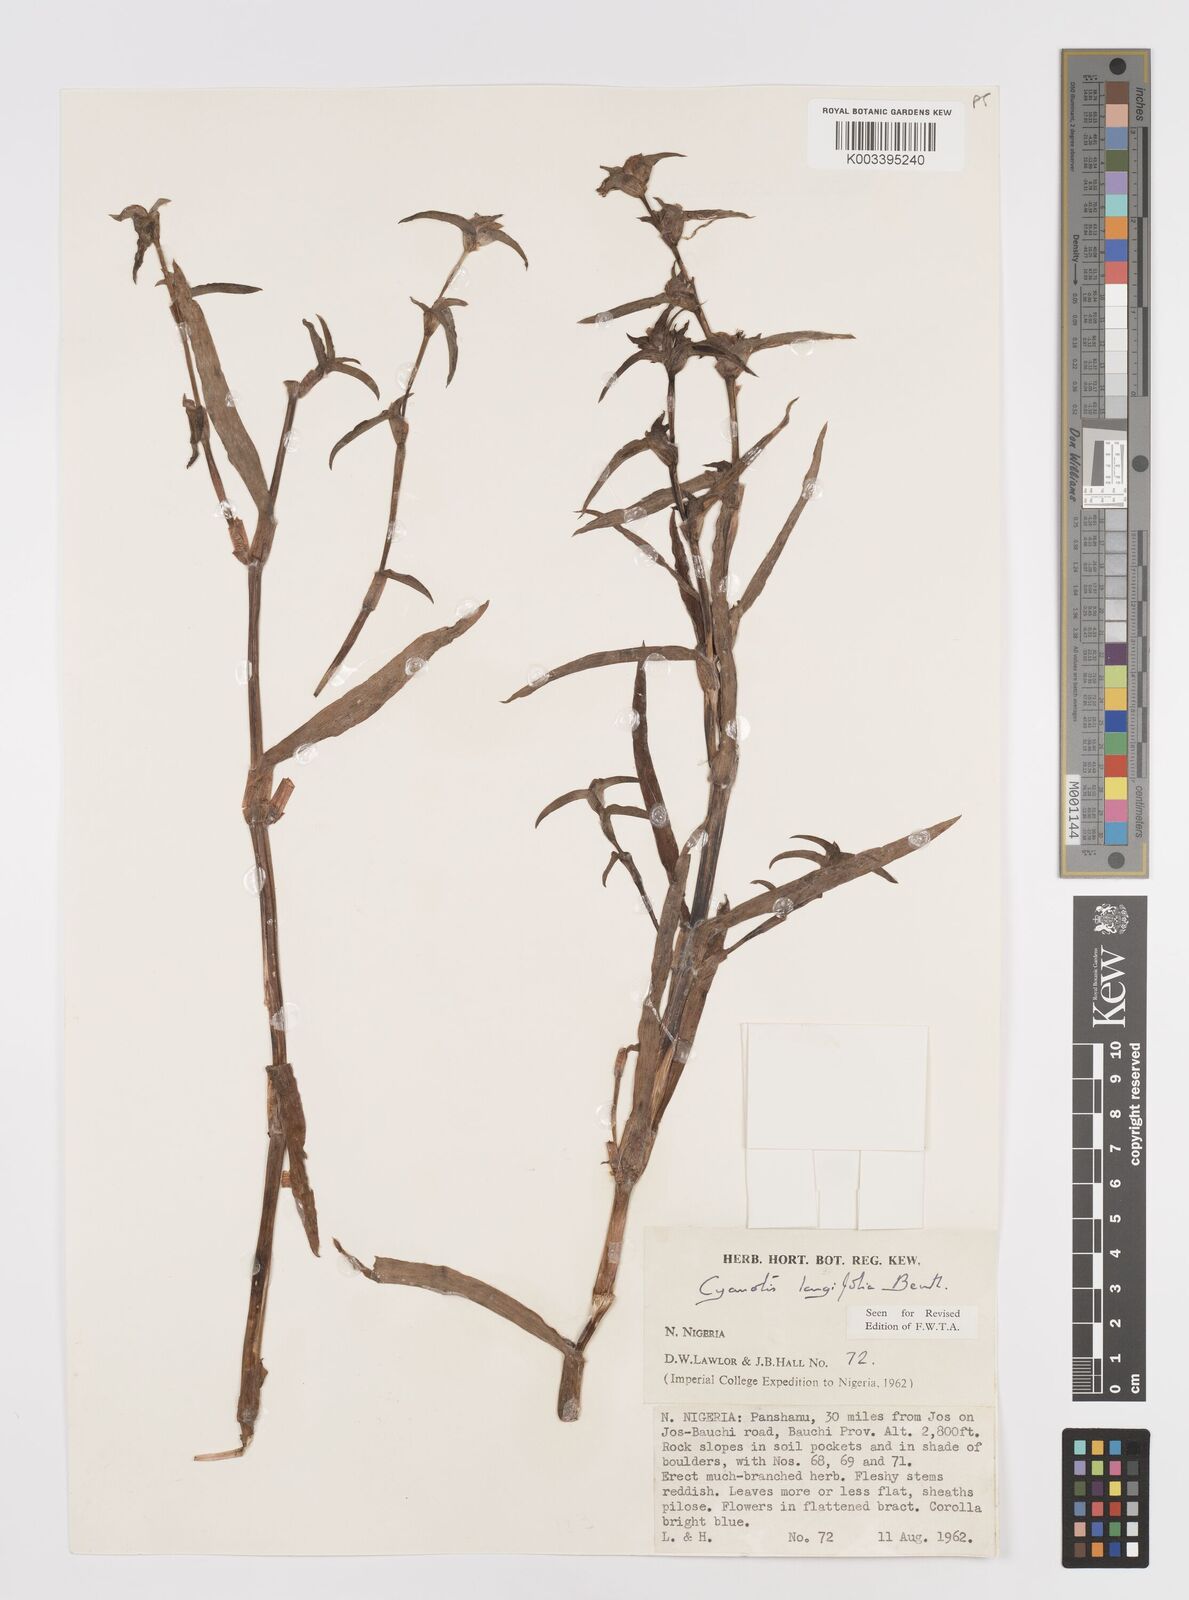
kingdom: Plantae
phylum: Tracheophyta
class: Liliopsida
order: Commelinales
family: Commelinaceae
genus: Cyanotis
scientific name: Cyanotis
